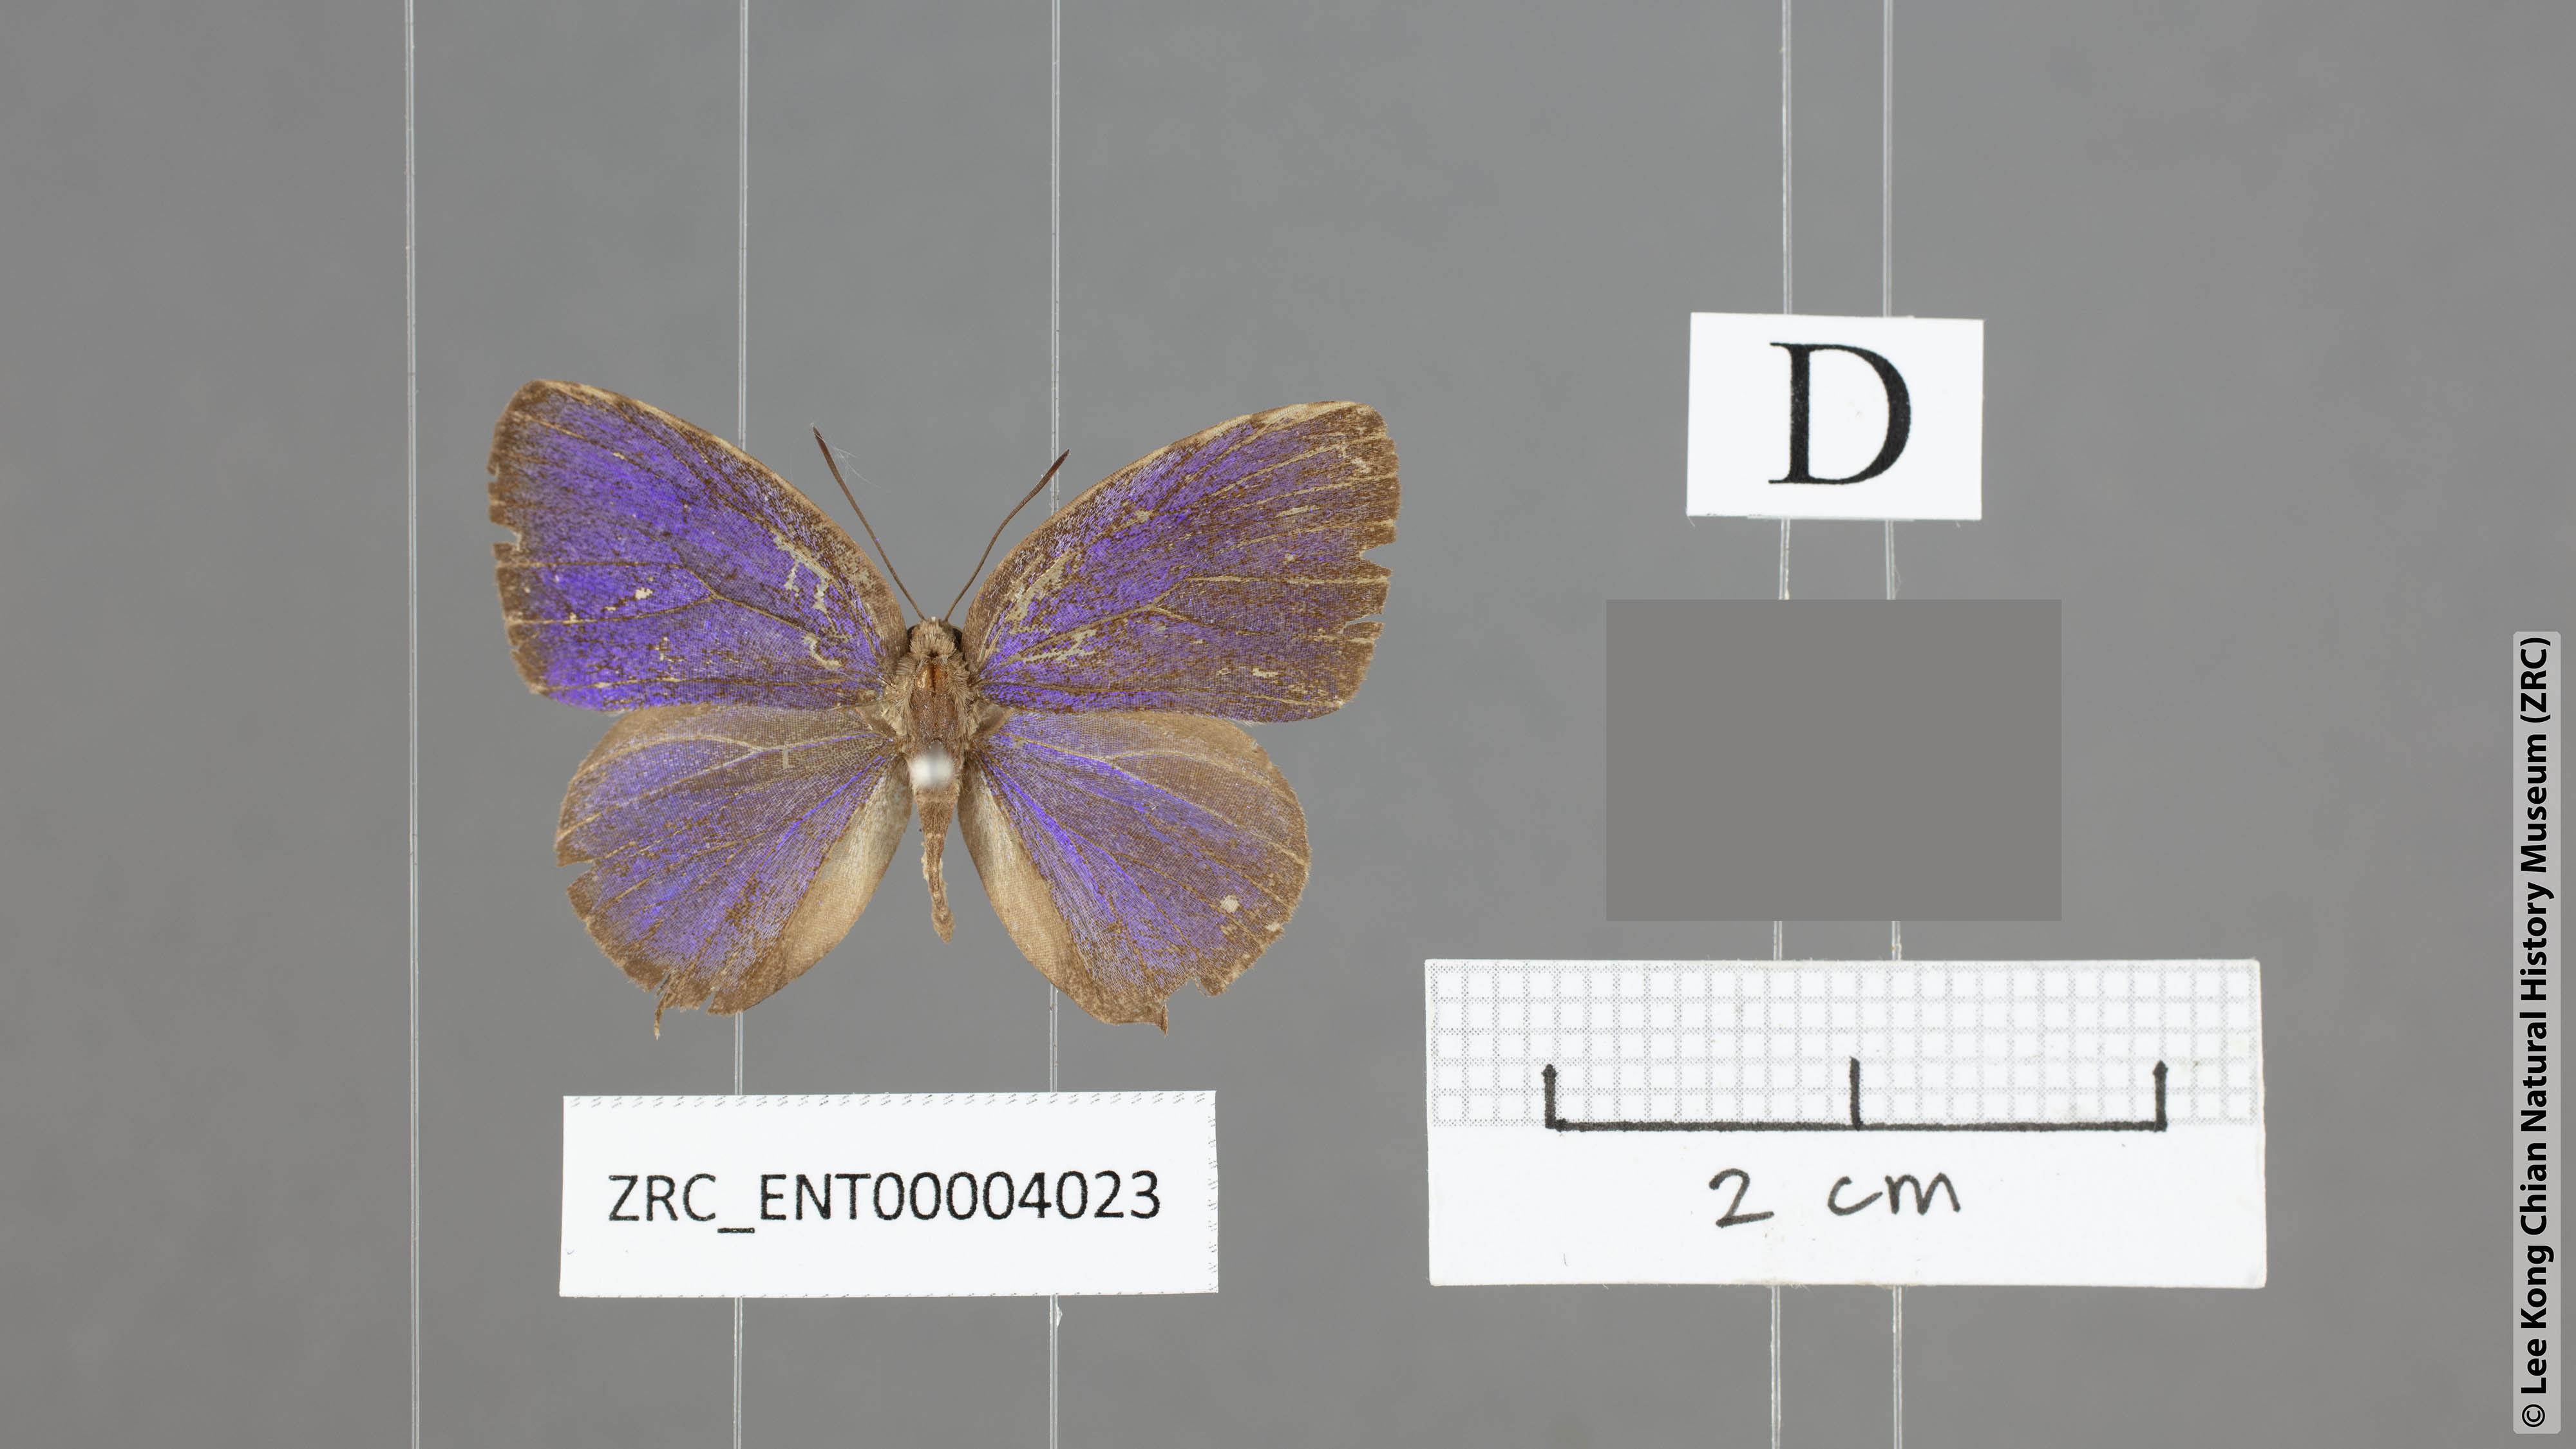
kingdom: Animalia
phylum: Arthropoda
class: Insecta
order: Lepidoptera
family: Lycaenidae
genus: Arhopala
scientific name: Arhopala phaenops
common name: Sumatran oakblue
